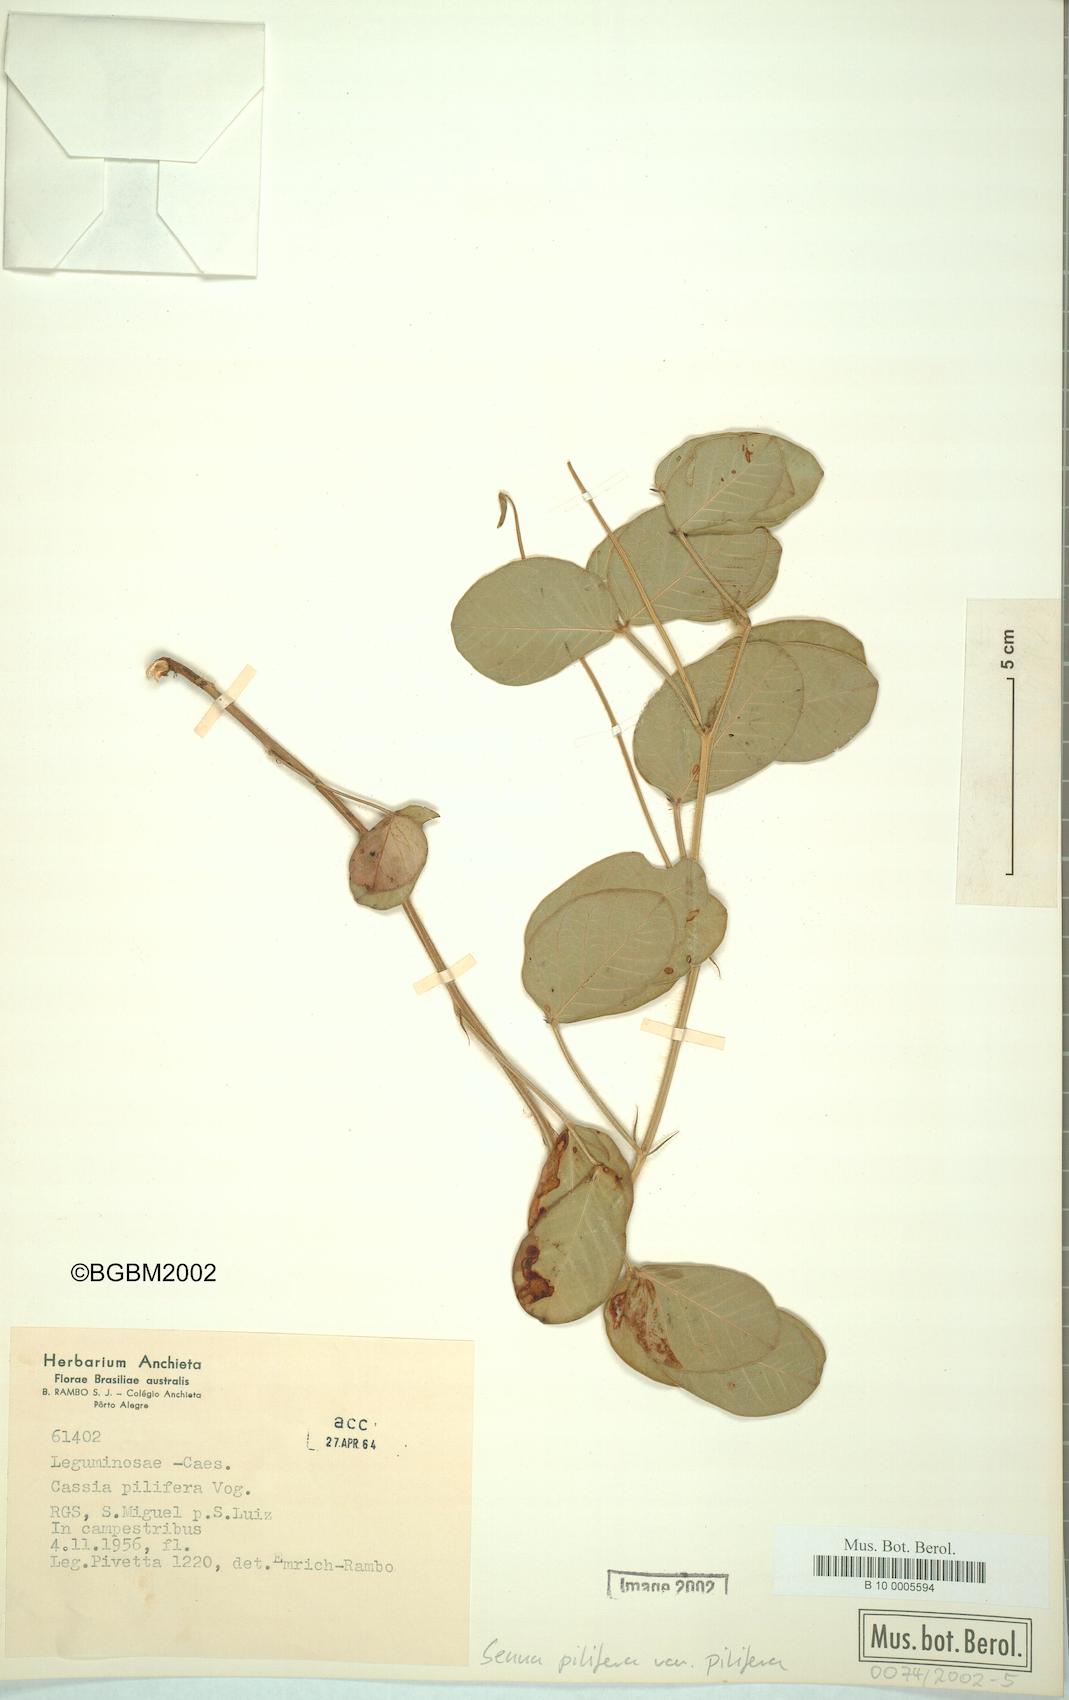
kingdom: Plantae
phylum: Tracheophyta
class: Magnoliopsida
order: Fabales
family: Fabaceae
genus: Senna
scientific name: Senna pilifera
